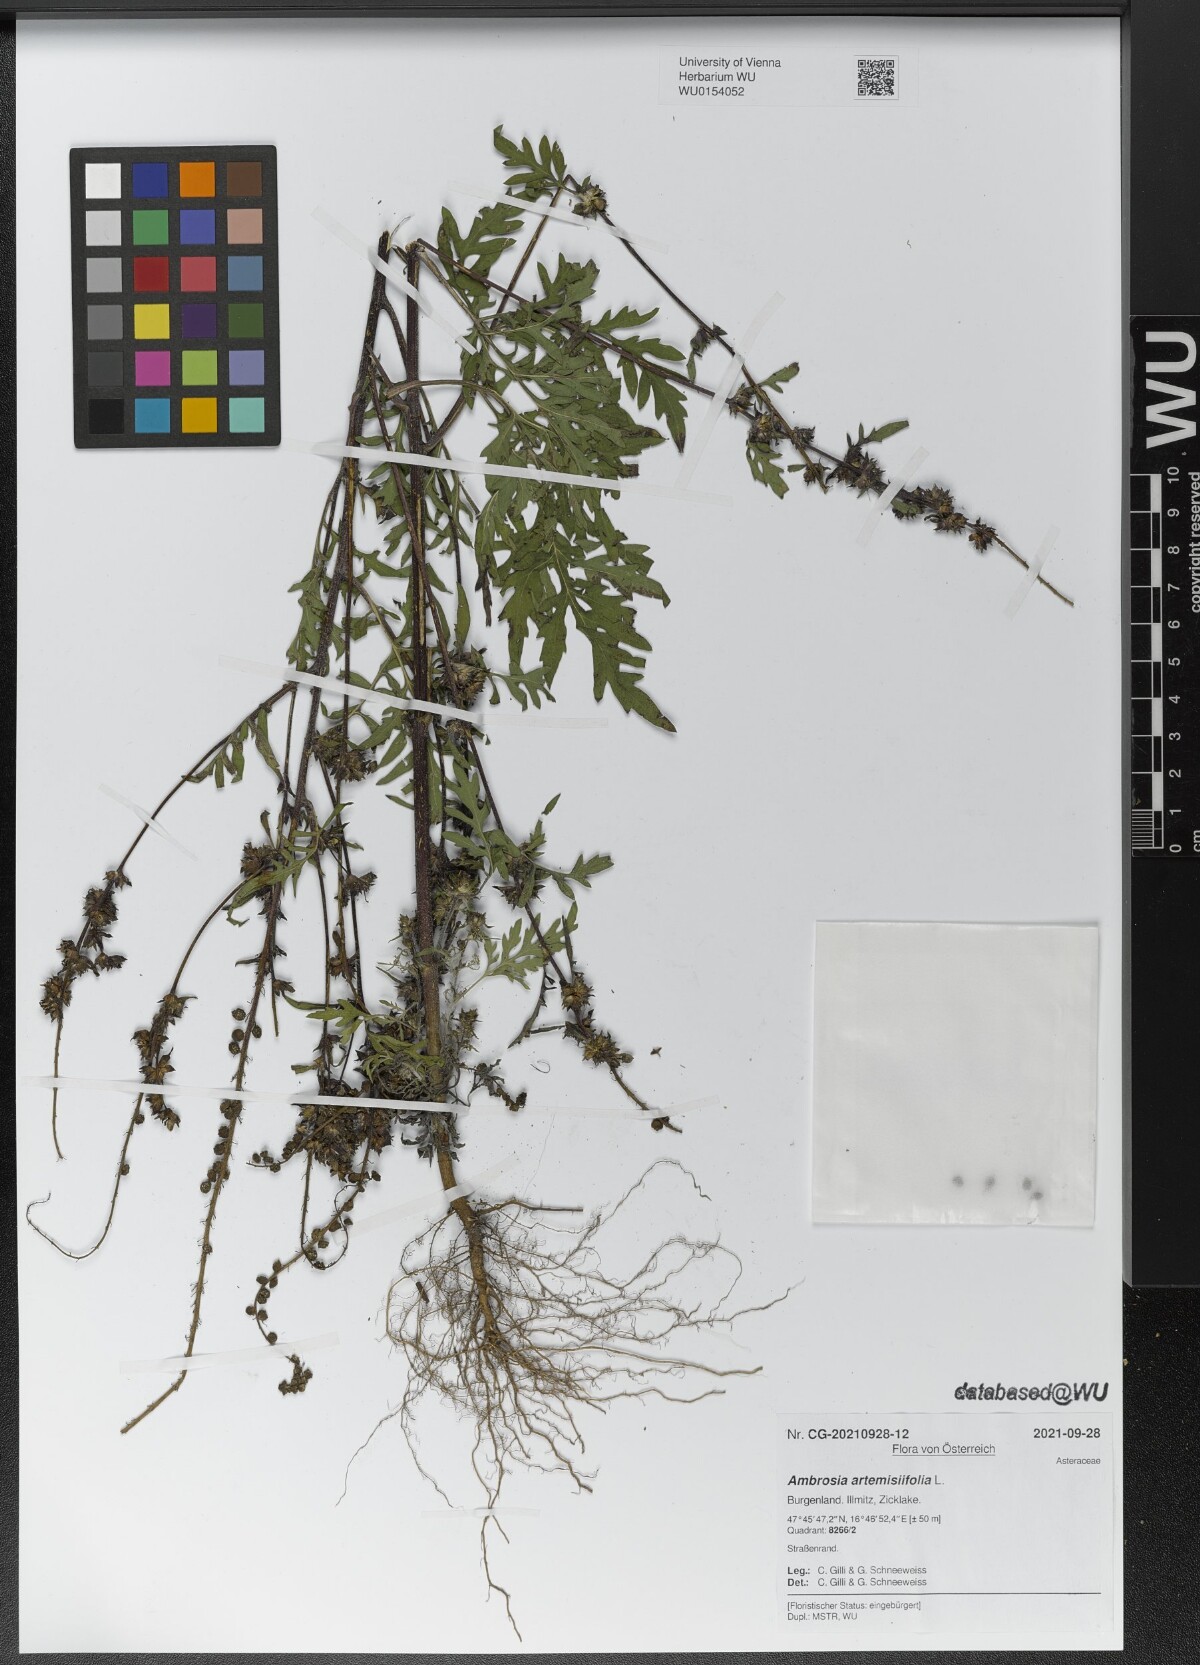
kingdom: Plantae
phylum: Tracheophyta
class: Magnoliopsida
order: Asterales
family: Asteraceae
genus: Ambrosia
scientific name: Ambrosia artemisiifolia
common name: Annual ragweed
